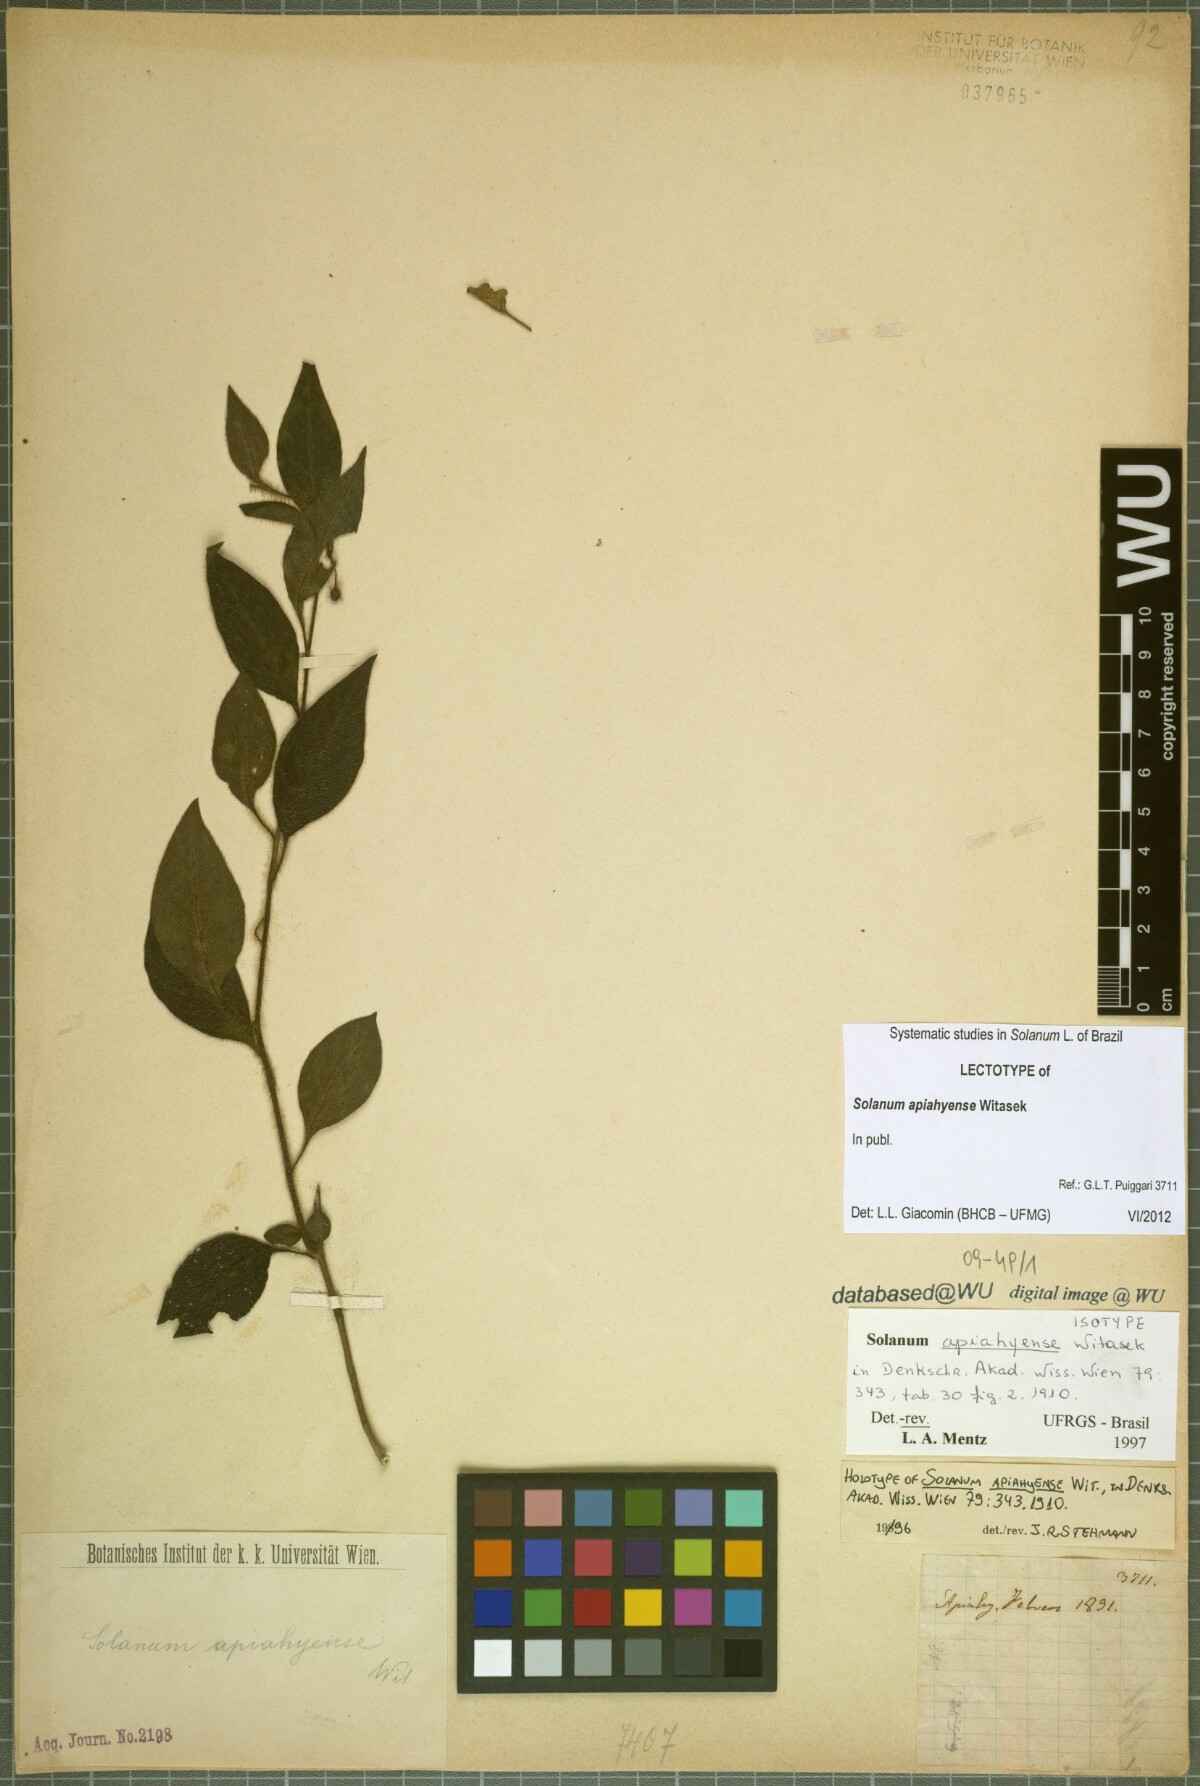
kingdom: Plantae
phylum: Tracheophyta
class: Magnoliopsida
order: Solanales
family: Solanaceae
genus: Solanum
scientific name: Solanum apiahyense
